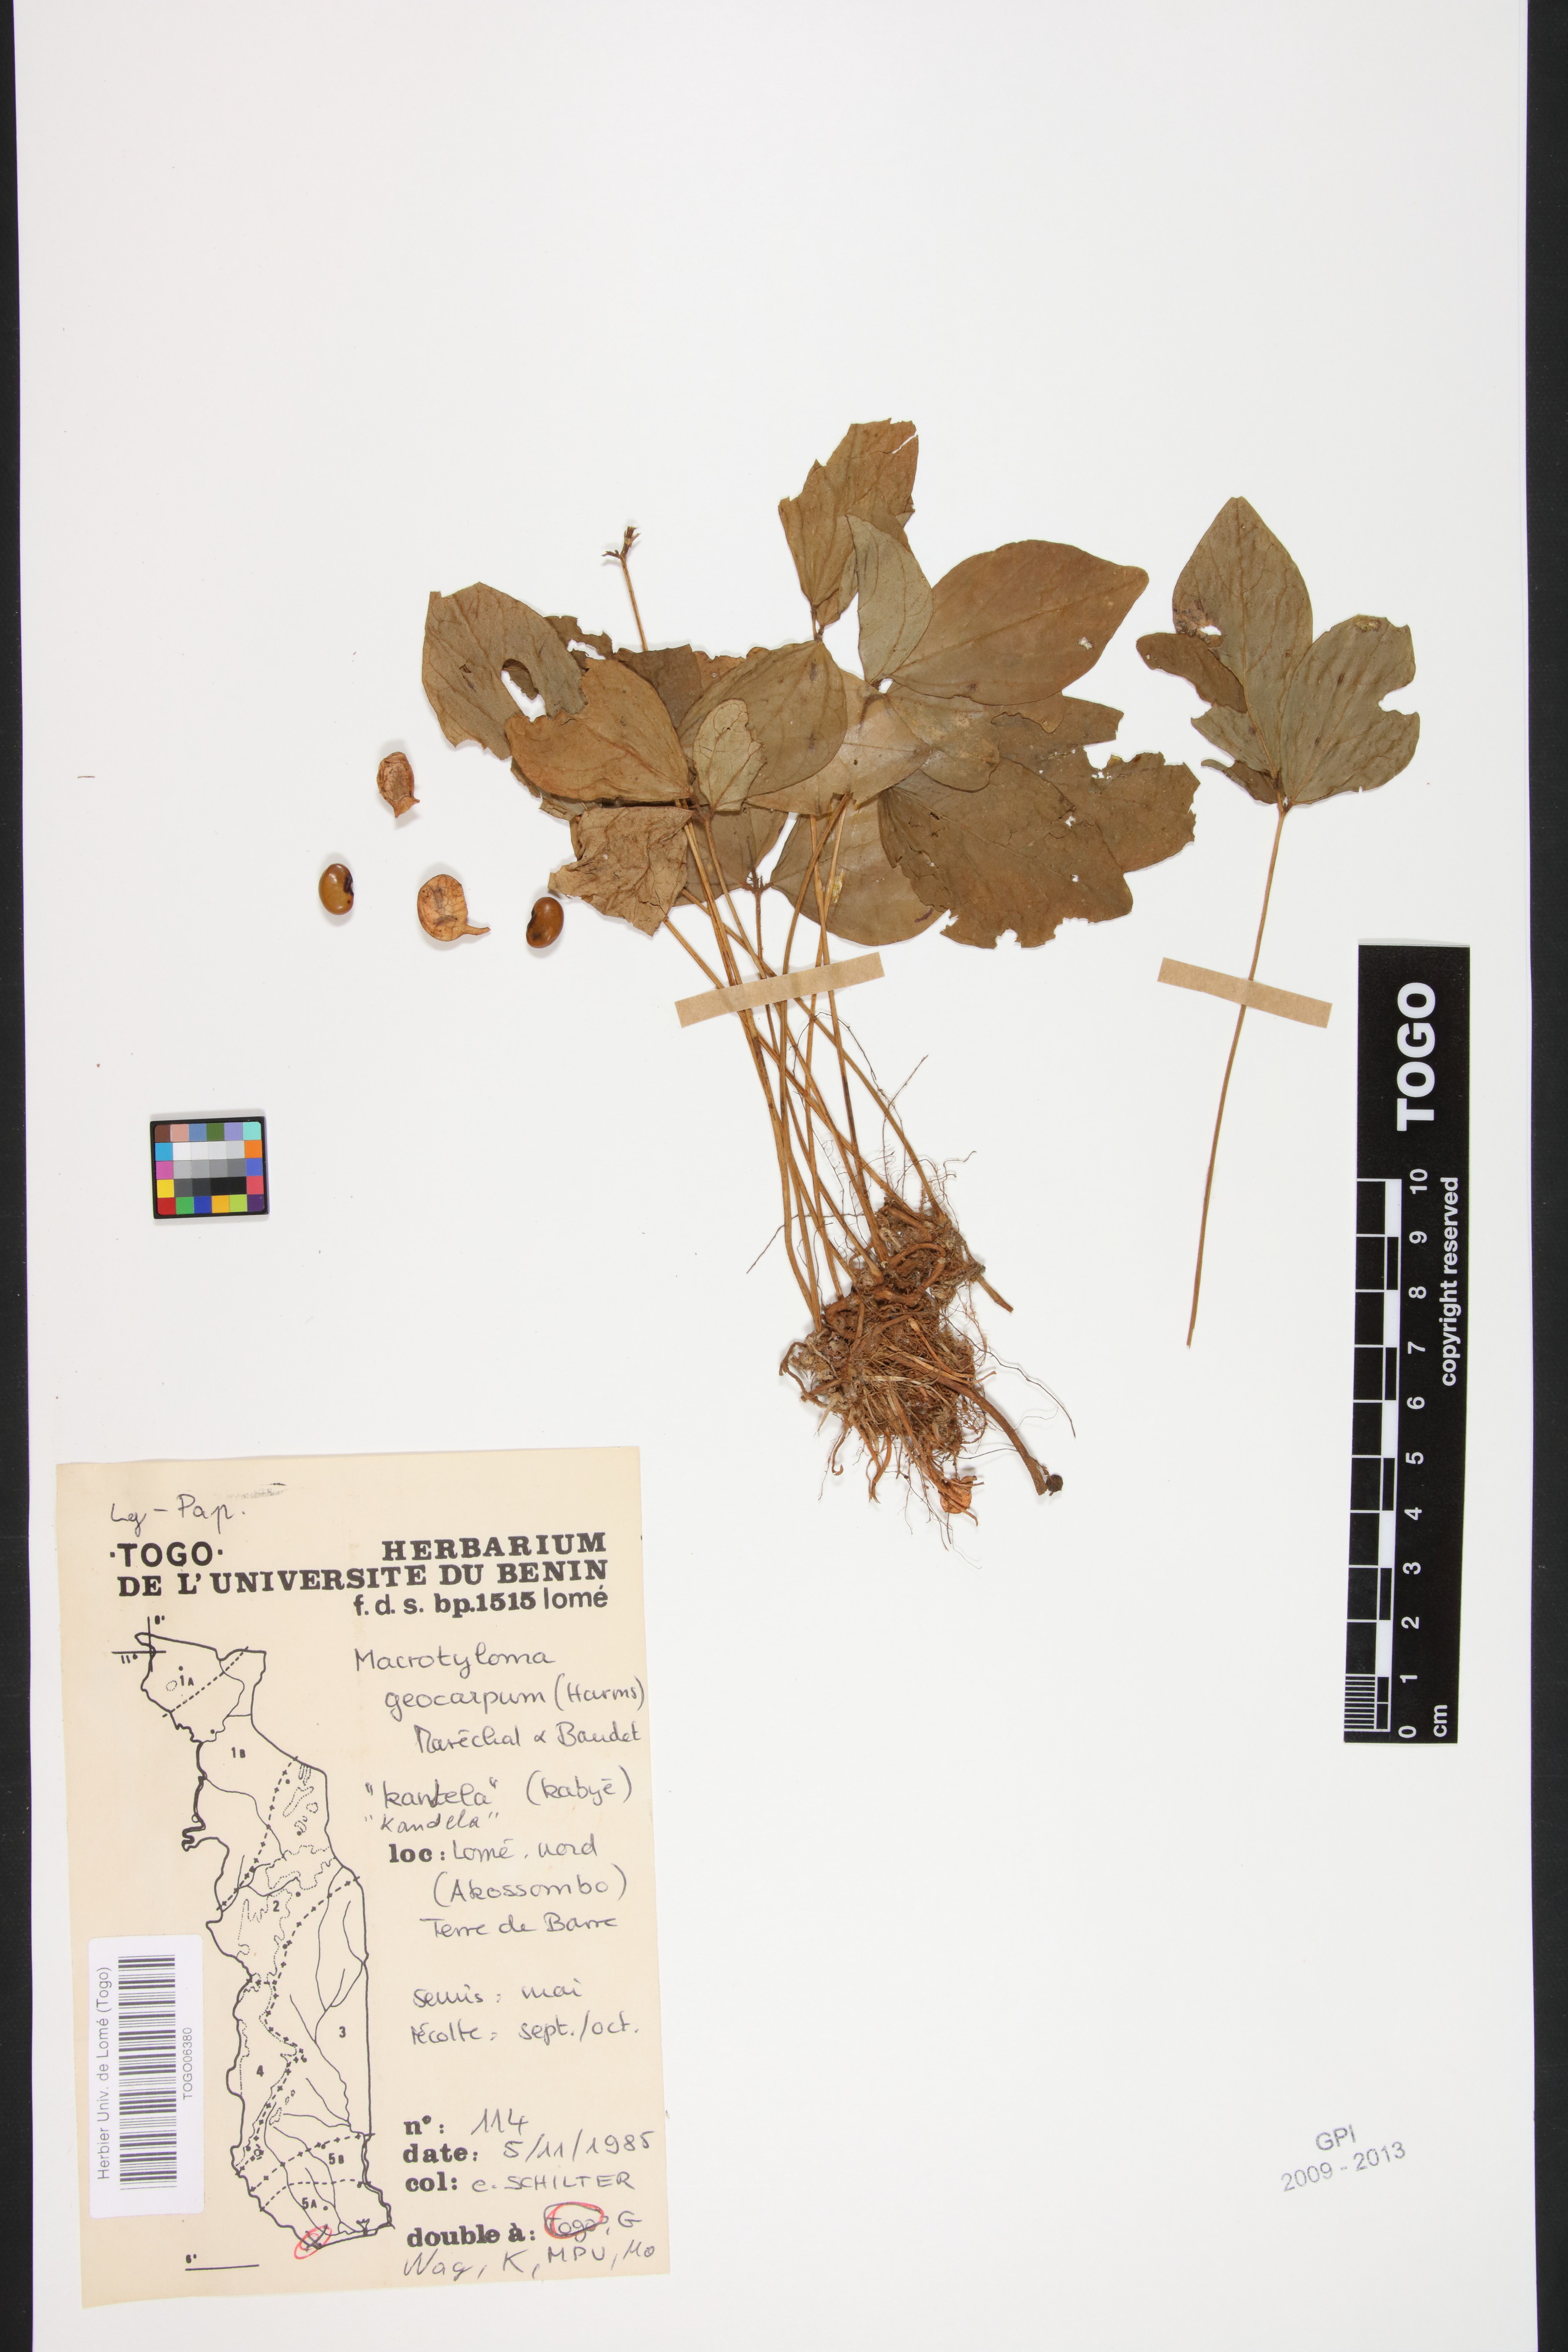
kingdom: Plantae
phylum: Tracheophyta
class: Magnoliopsida
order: Fabales
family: Fabaceae
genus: Macrotyloma
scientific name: Macrotyloma geocarpum
